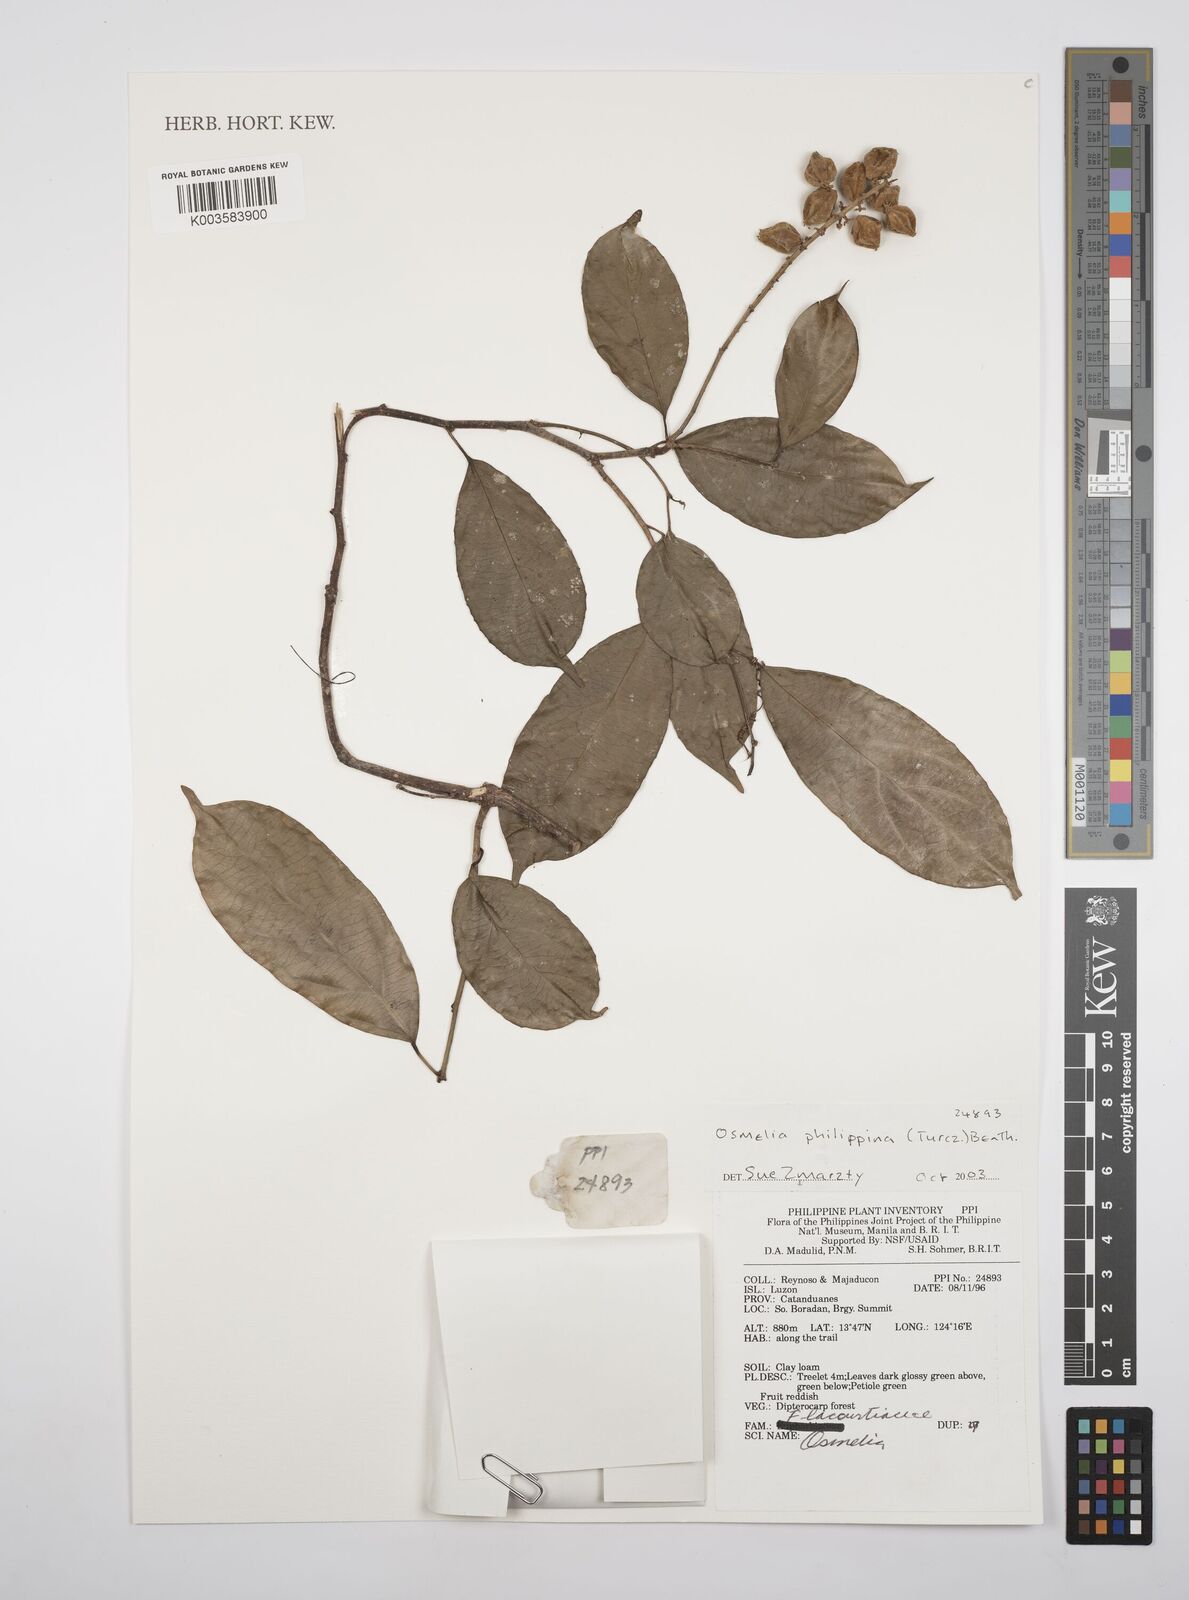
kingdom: Plantae
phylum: Tracheophyta
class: Magnoliopsida
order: Malpighiales
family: Salicaceae
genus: Osmelia
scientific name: Osmelia philippina
